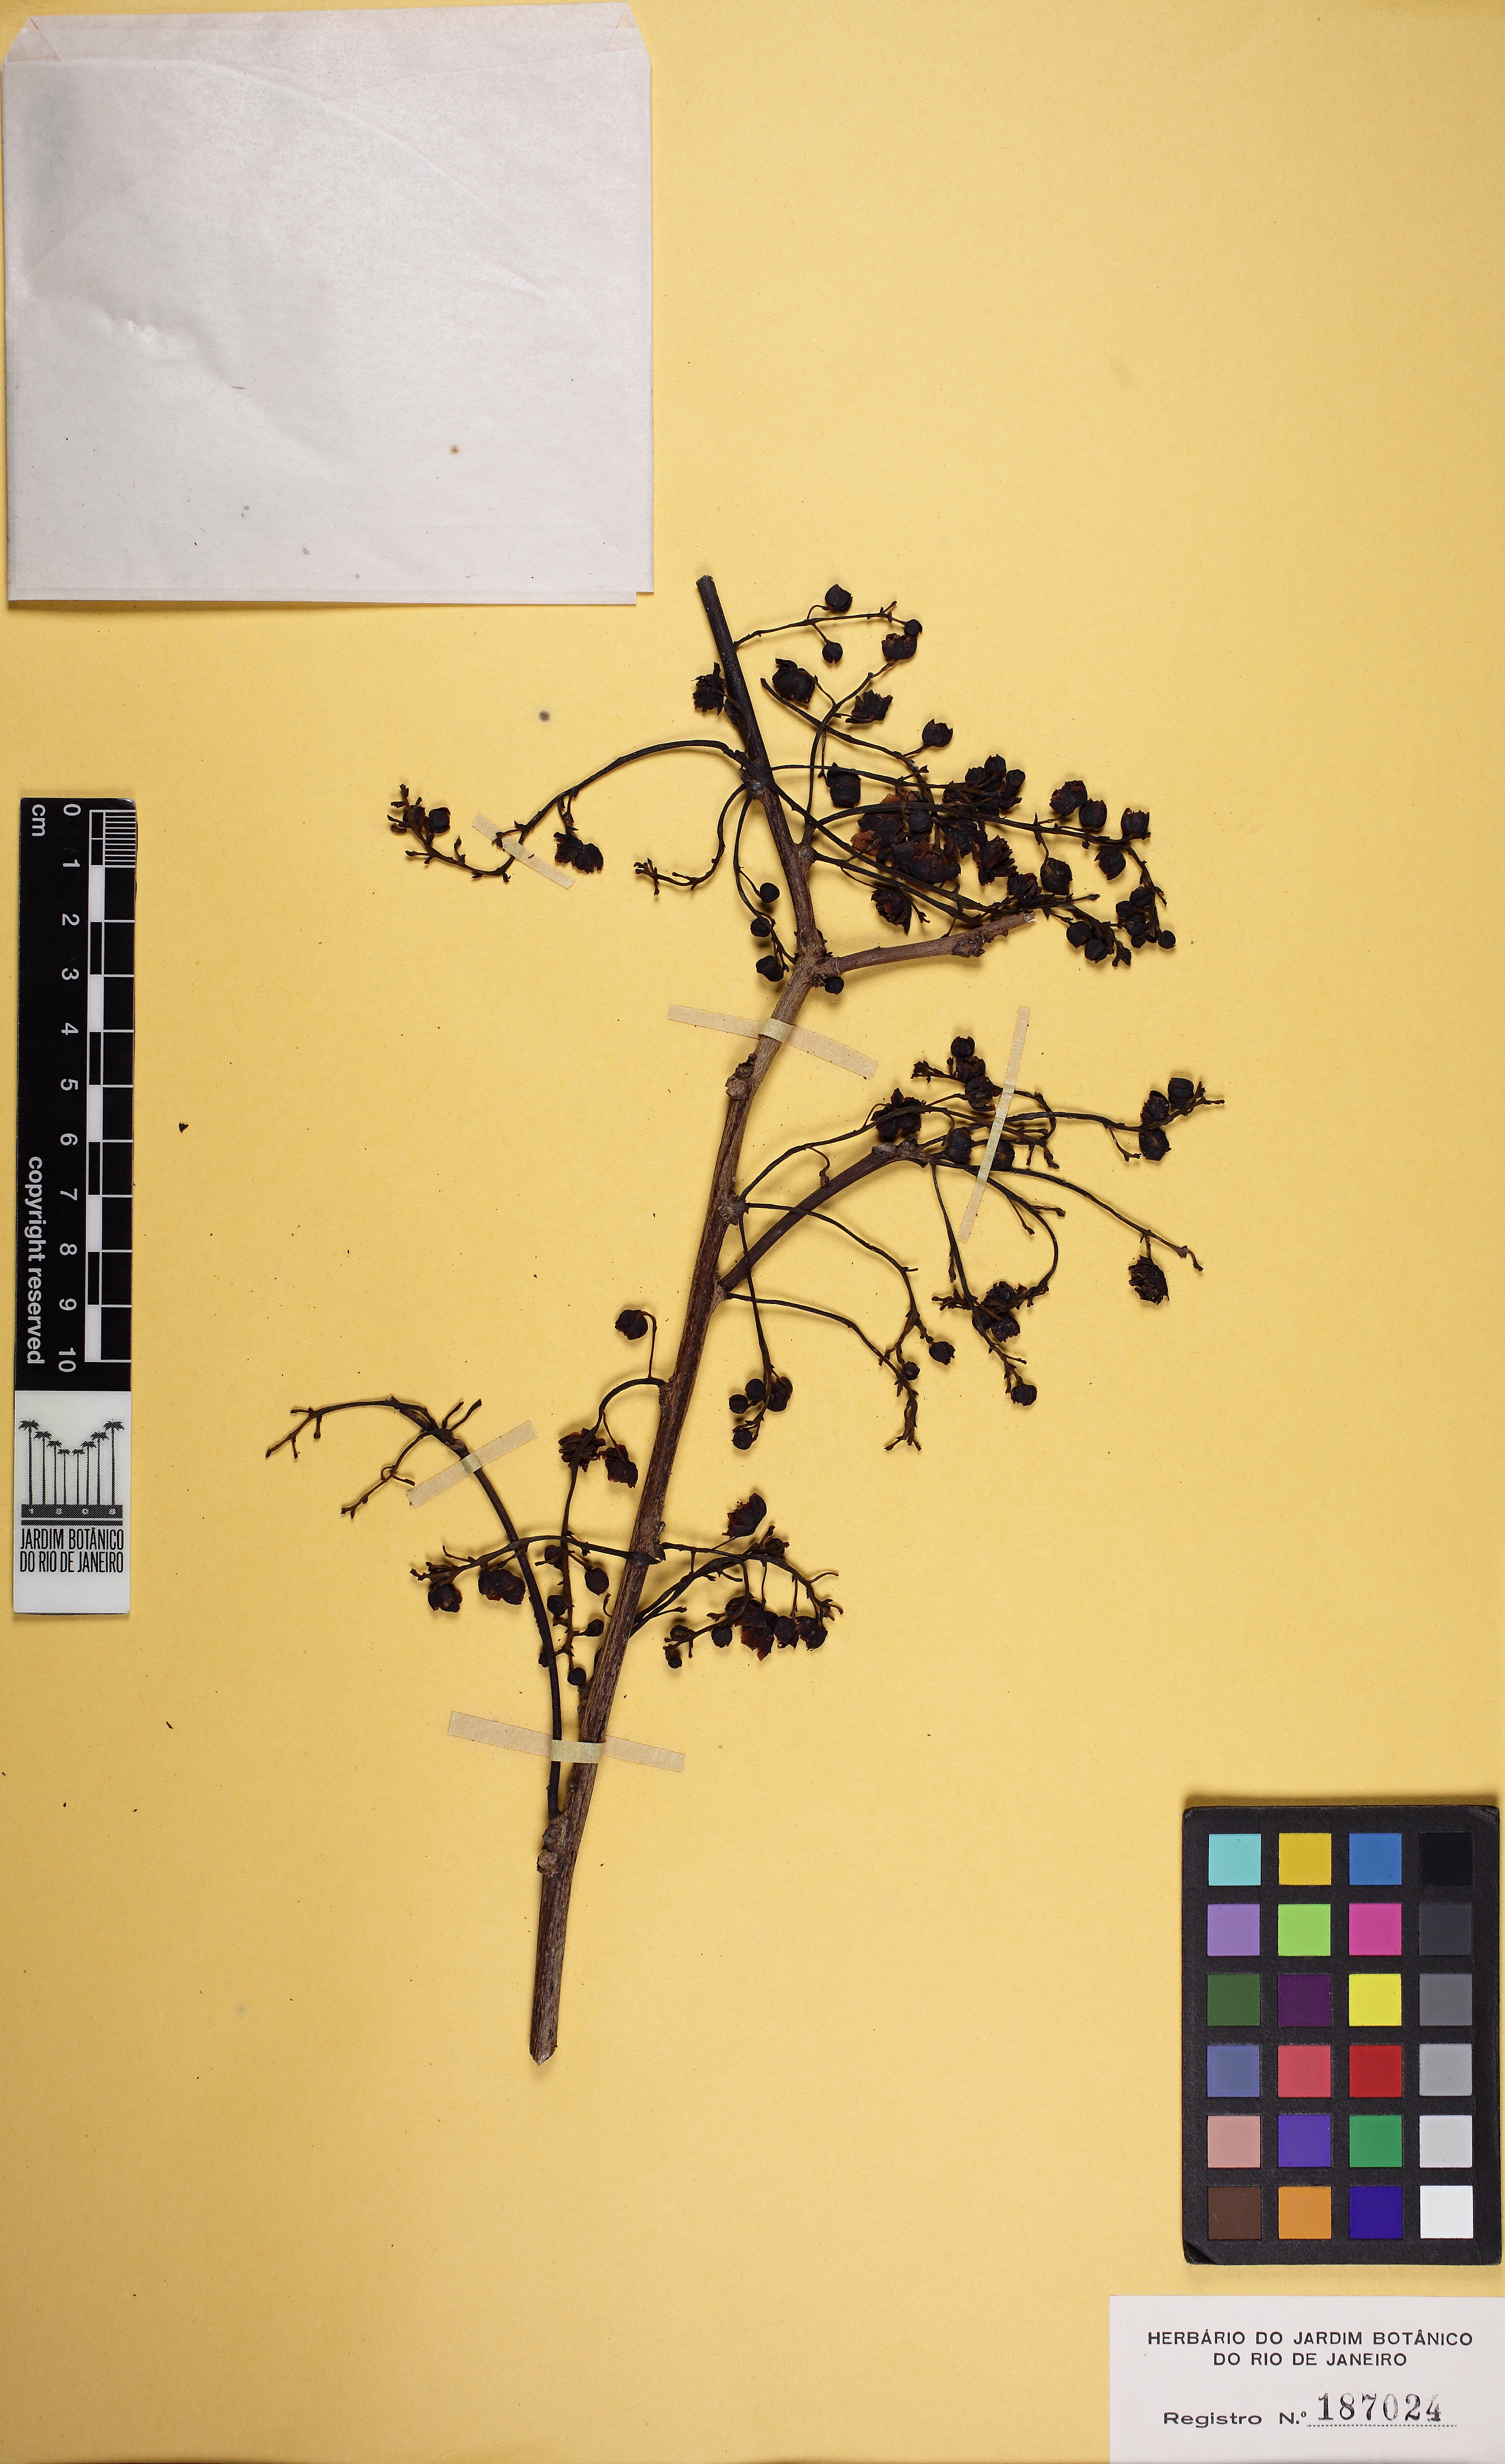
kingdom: Plantae
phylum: Tracheophyta
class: Magnoliopsida
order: Fabales
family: Fabaceae
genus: Chamaecrista
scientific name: Chamaecrista duartei
